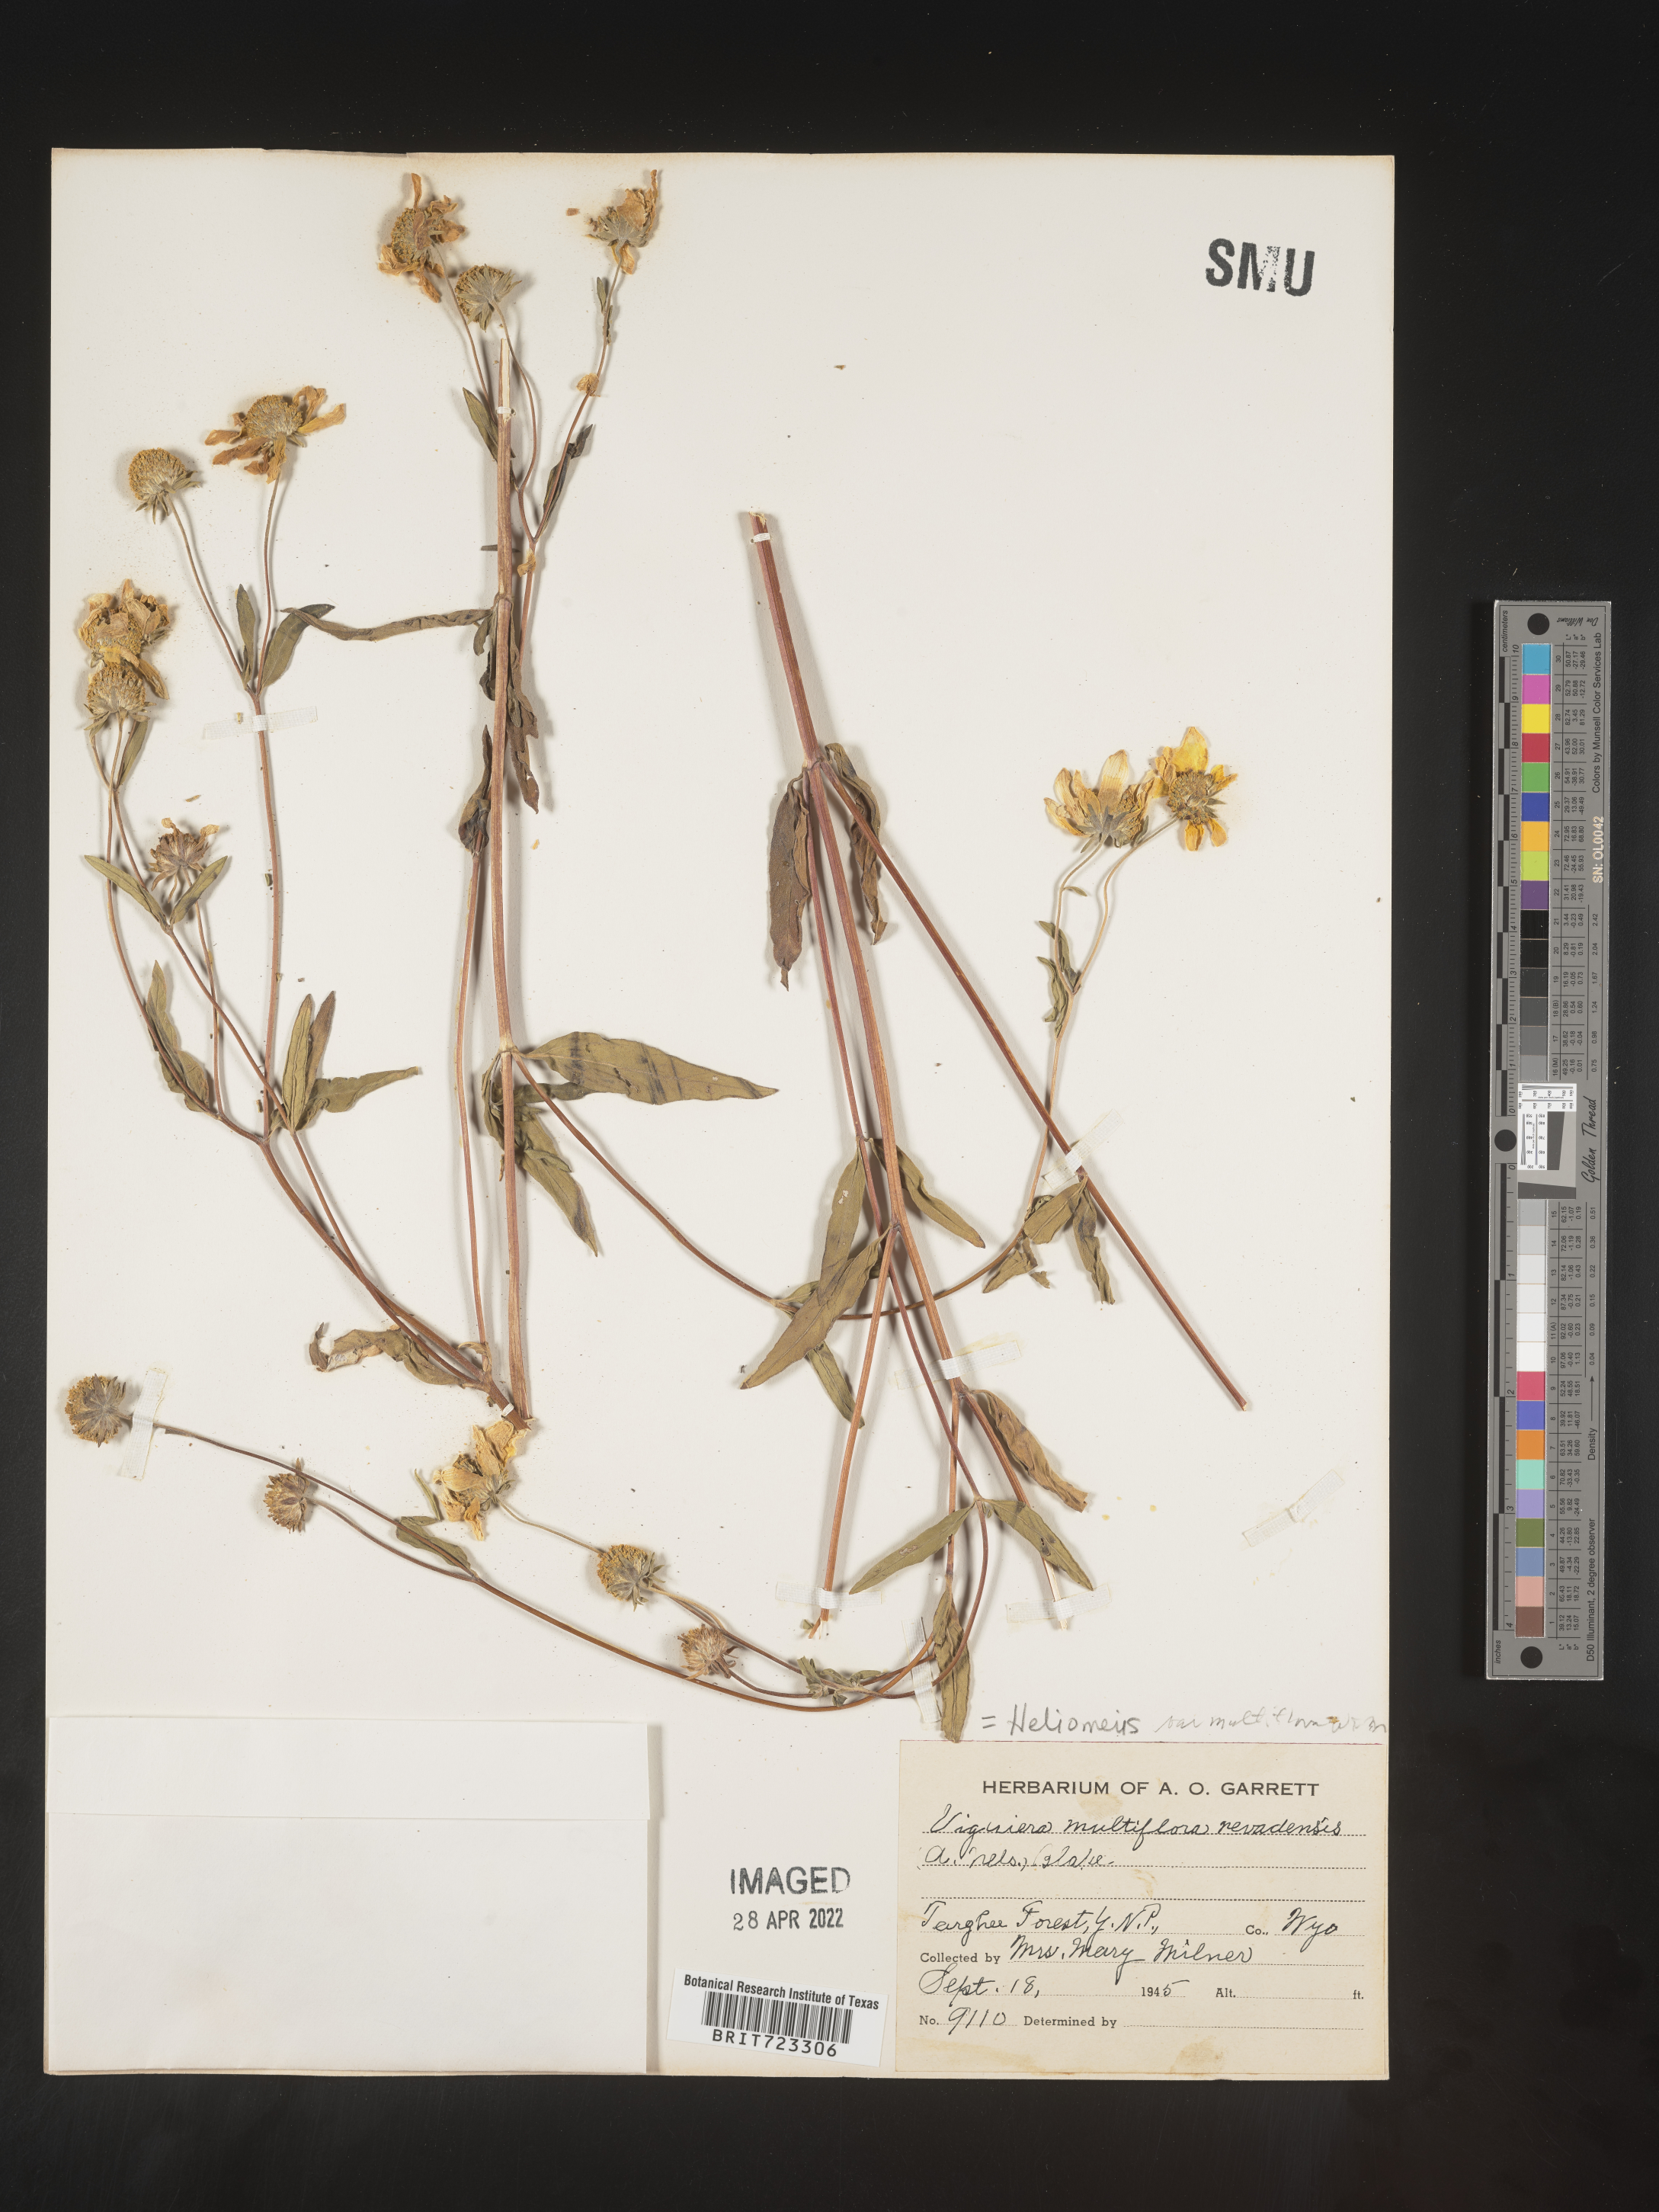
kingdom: Plantae
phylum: Tracheophyta
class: Magnoliopsida
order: Asterales
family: Asteraceae
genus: Heliomeris
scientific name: Heliomeris multiflora
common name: Showy goldeneye
